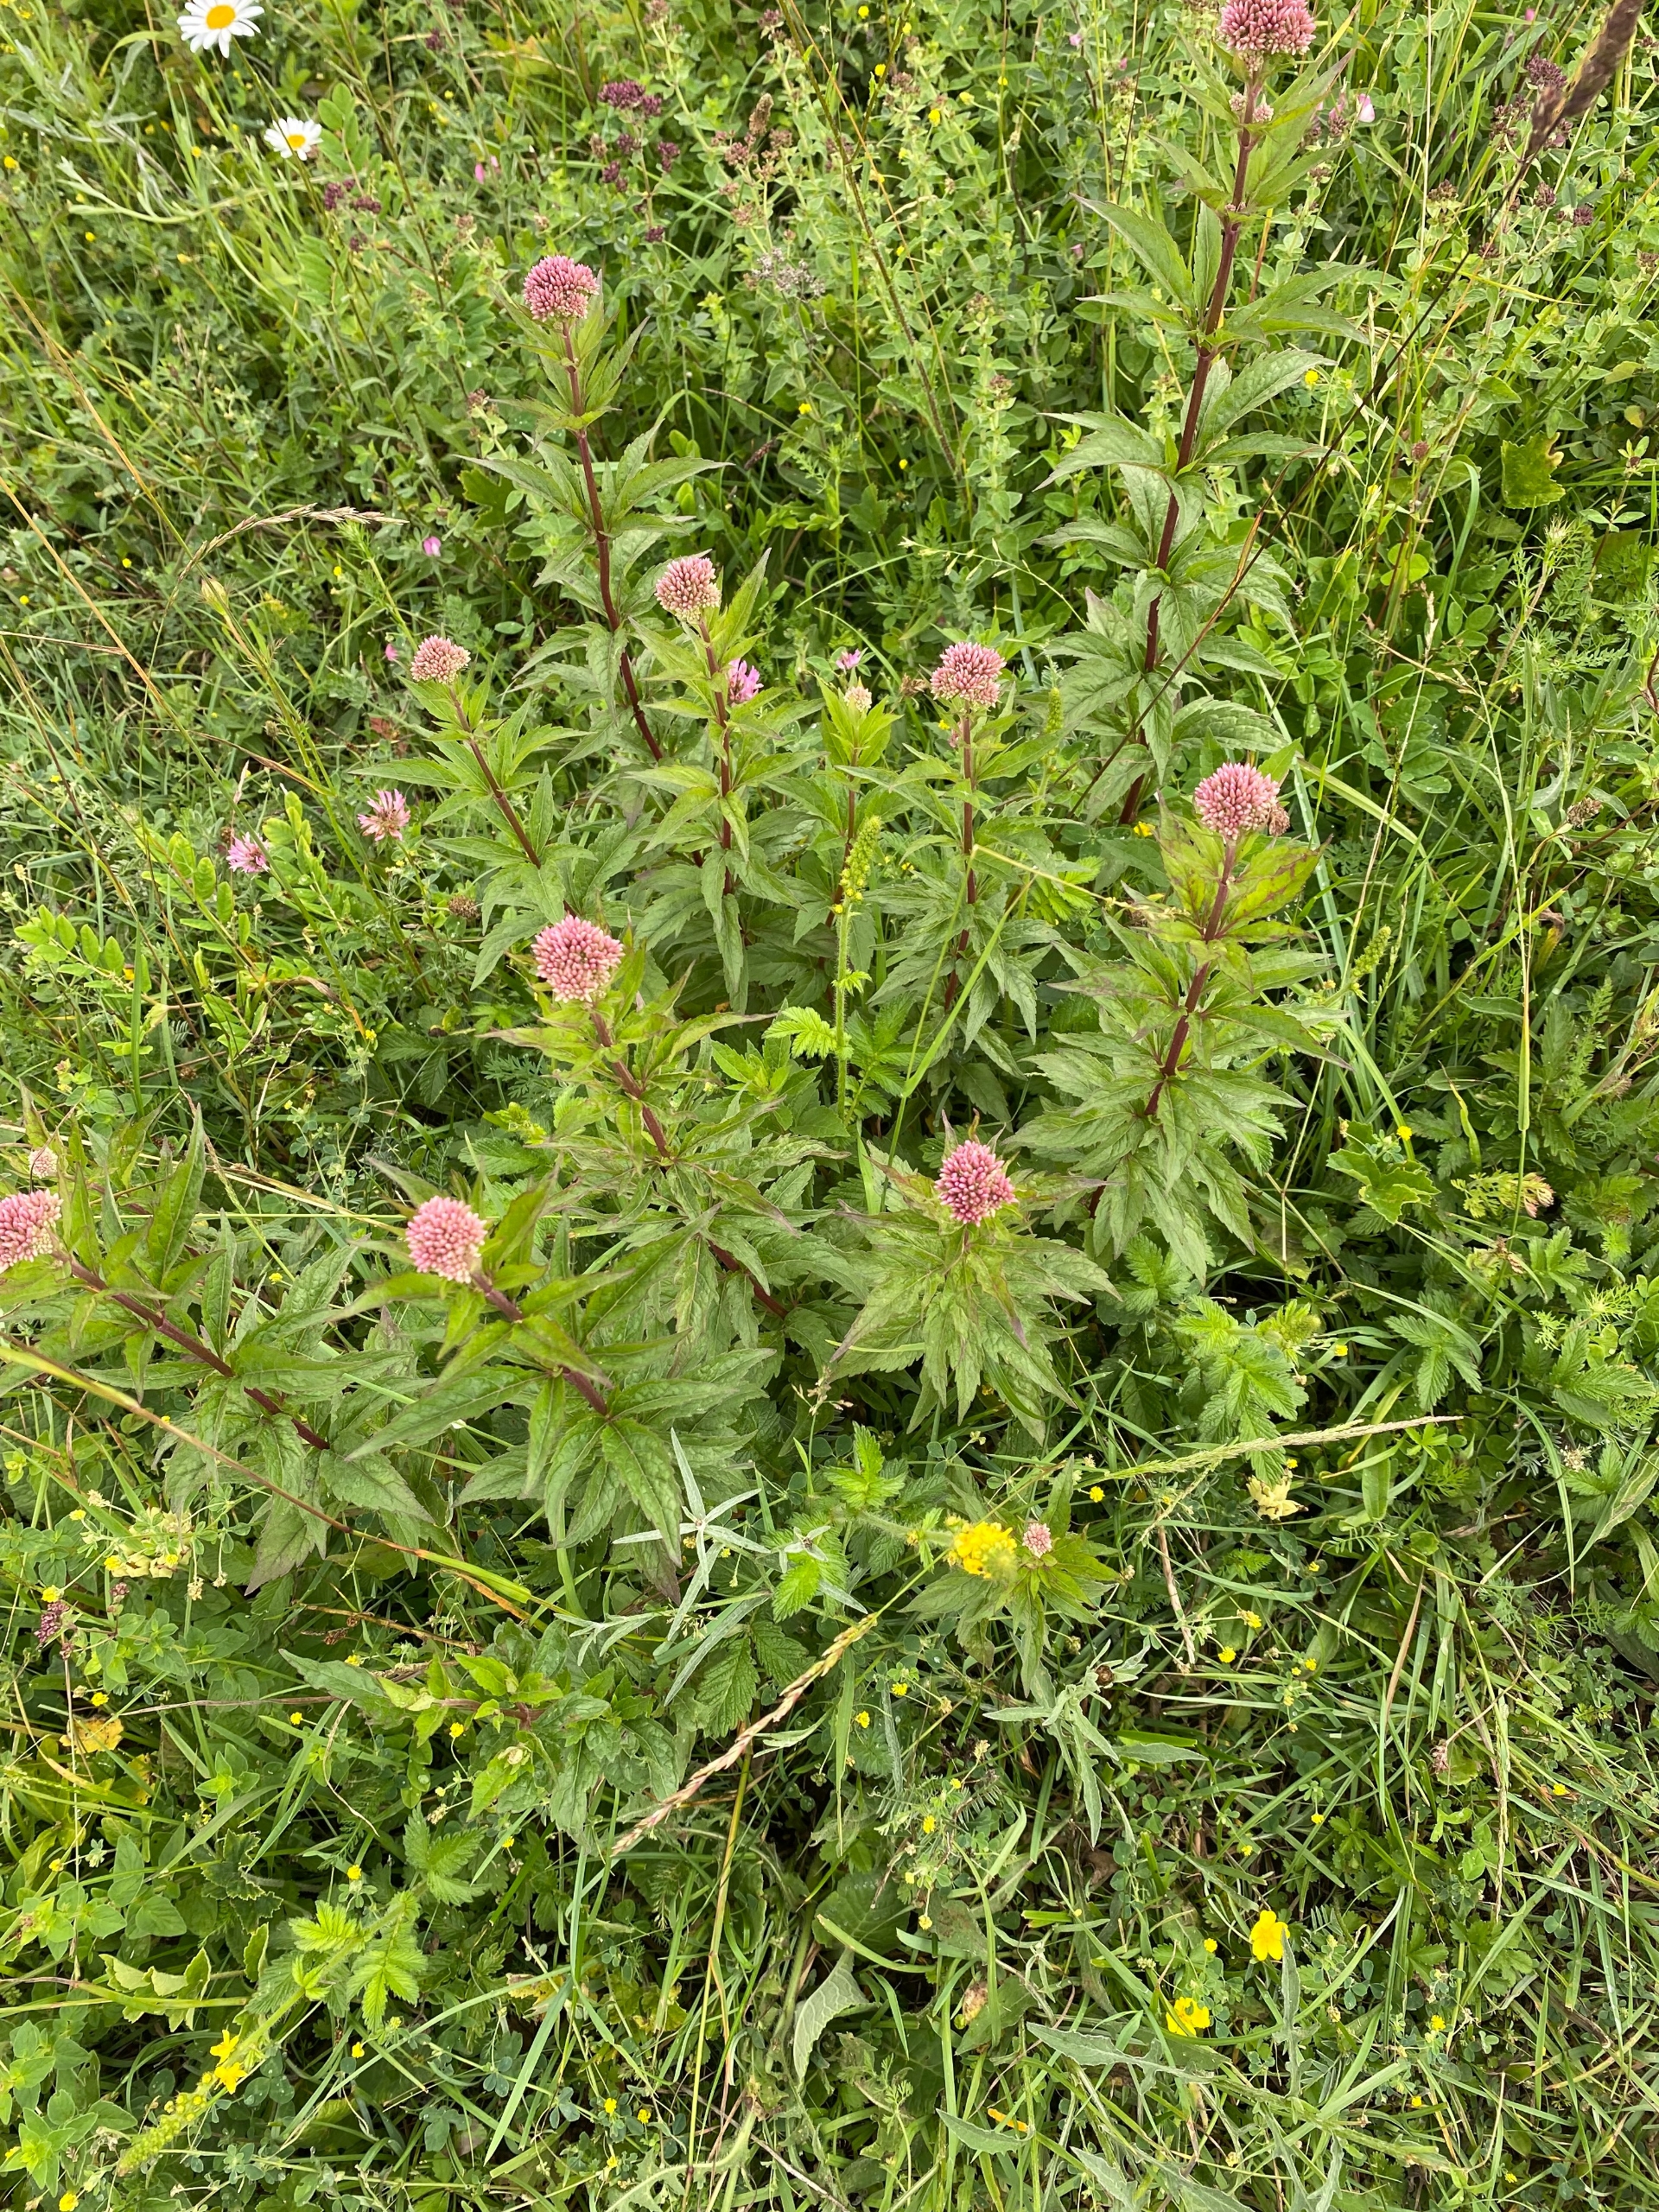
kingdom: Plantae
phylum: Tracheophyta
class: Magnoliopsida
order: Asterales
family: Asteraceae
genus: Eupatorium
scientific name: Eupatorium cannabinum
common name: Hjortetrøst
